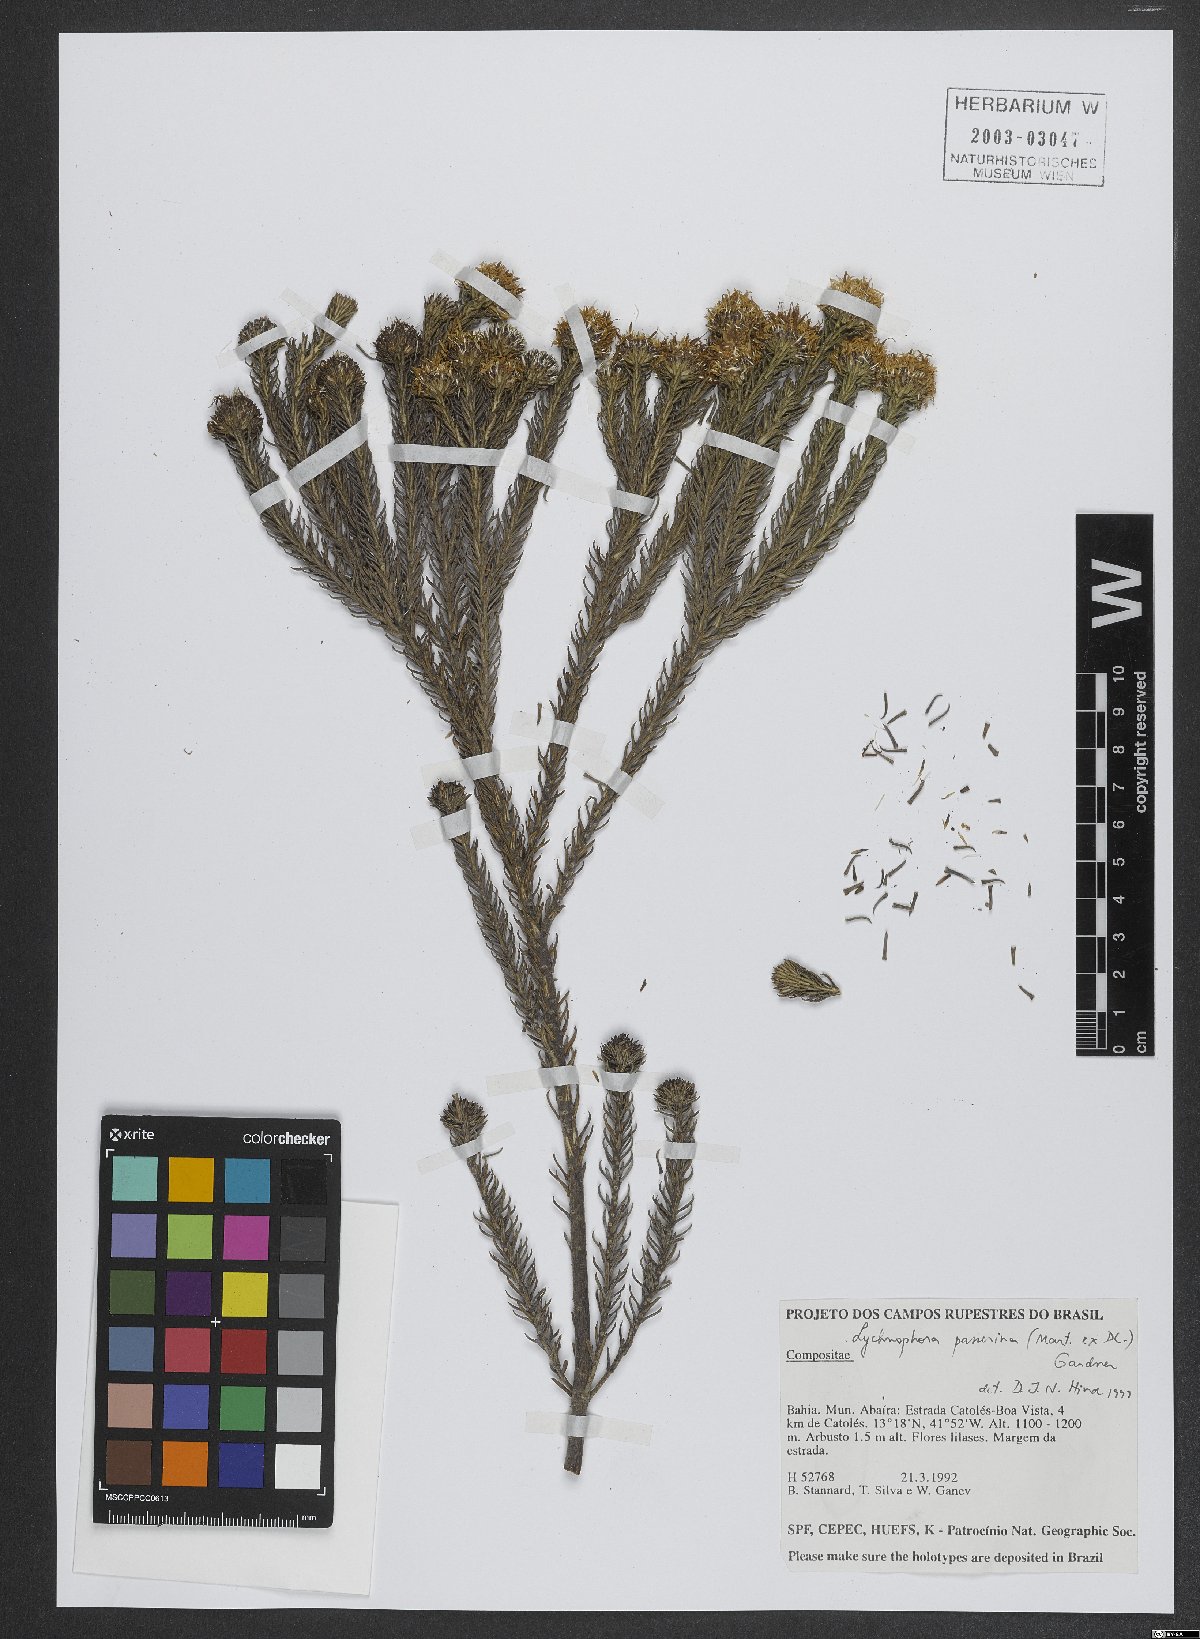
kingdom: Plantae
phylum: Tracheophyta
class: Magnoliopsida
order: Asterales
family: Asteraceae
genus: Lychnophora
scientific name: Lychnophora passerina
